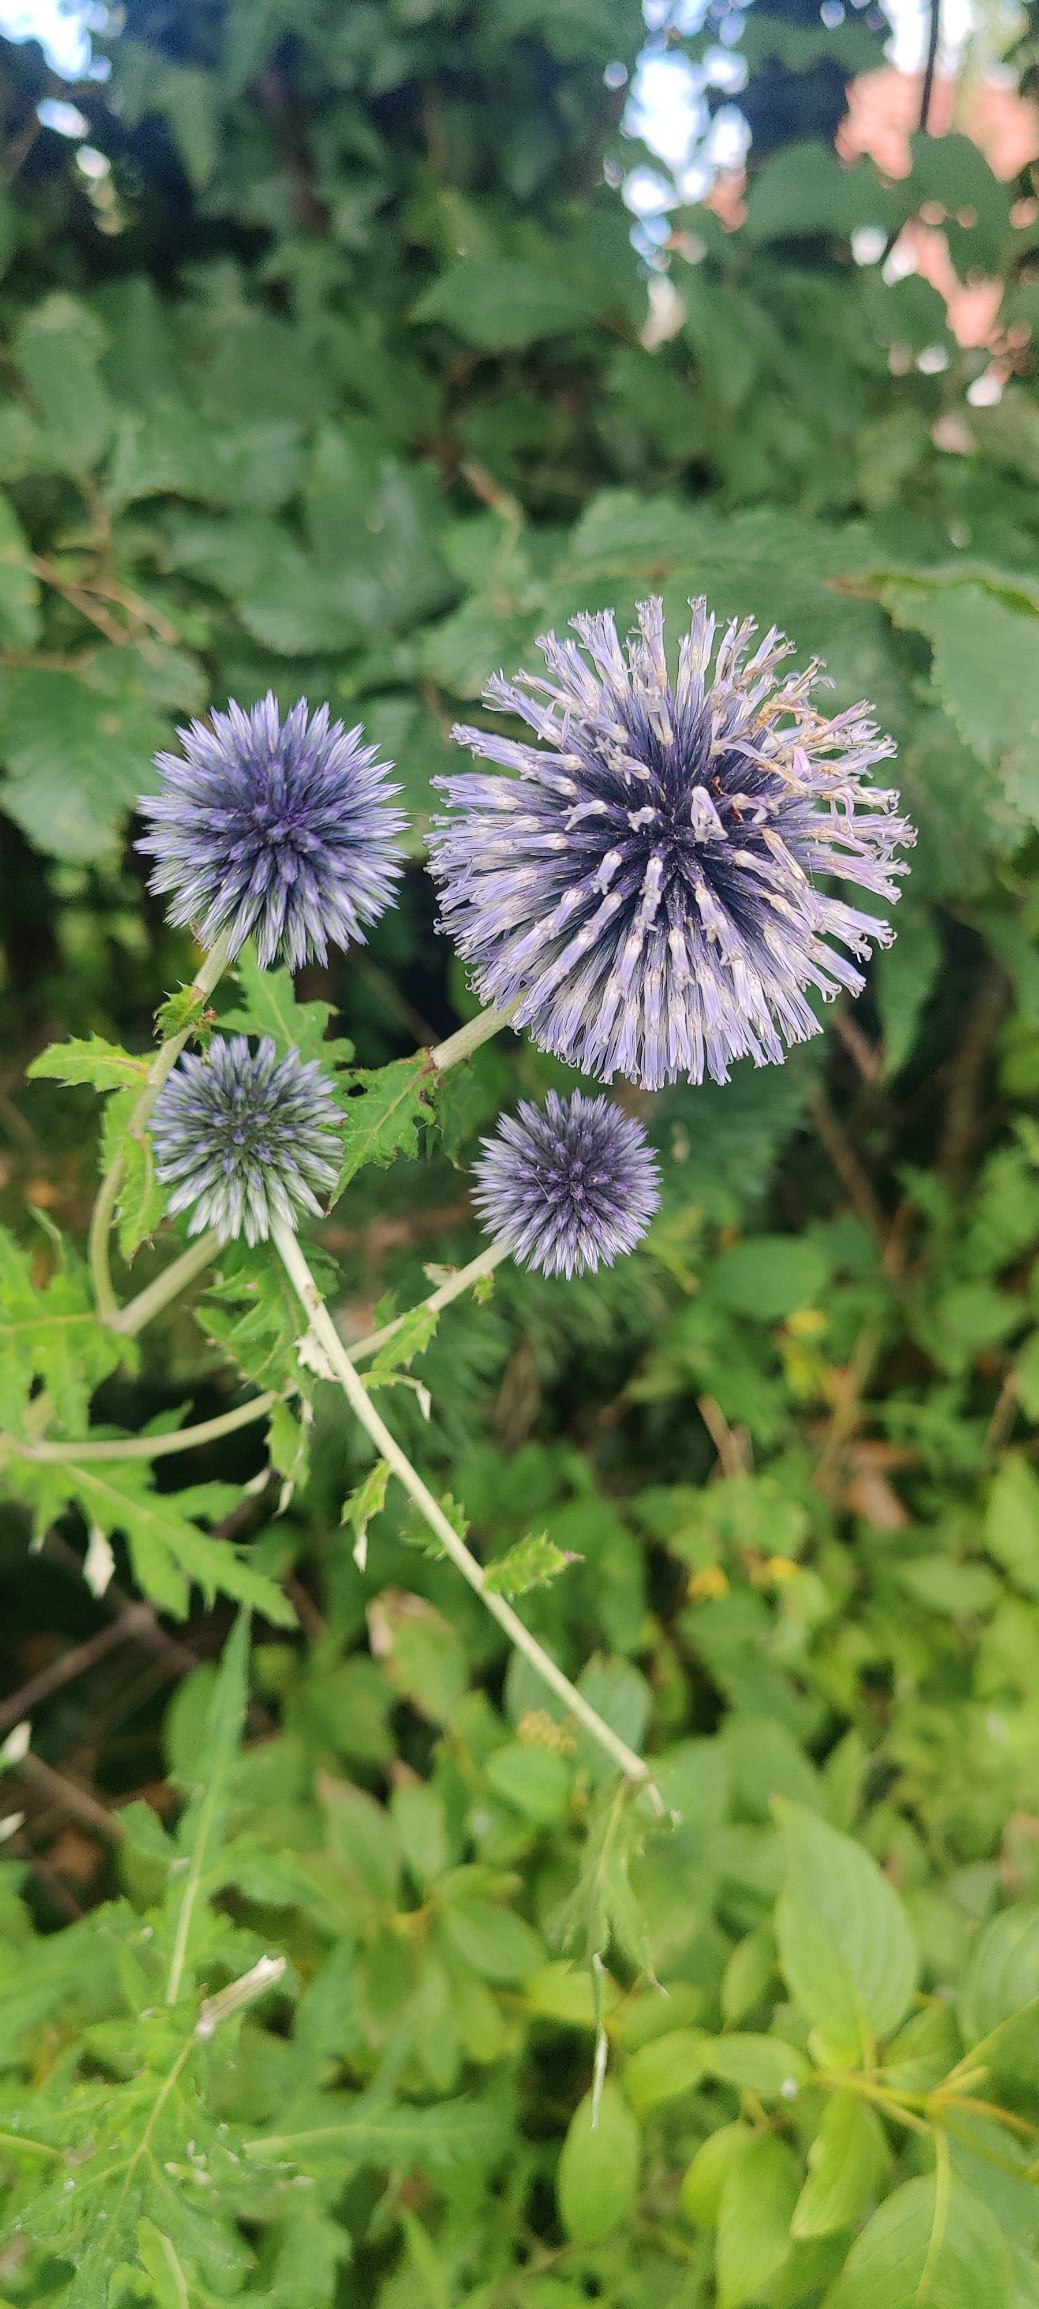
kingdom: Plantae
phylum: Tracheophyta
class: Magnoliopsida
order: Asterales
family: Asteraceae
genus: Echinops
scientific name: Echinops bannaticus
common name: Blå tidselkugle
